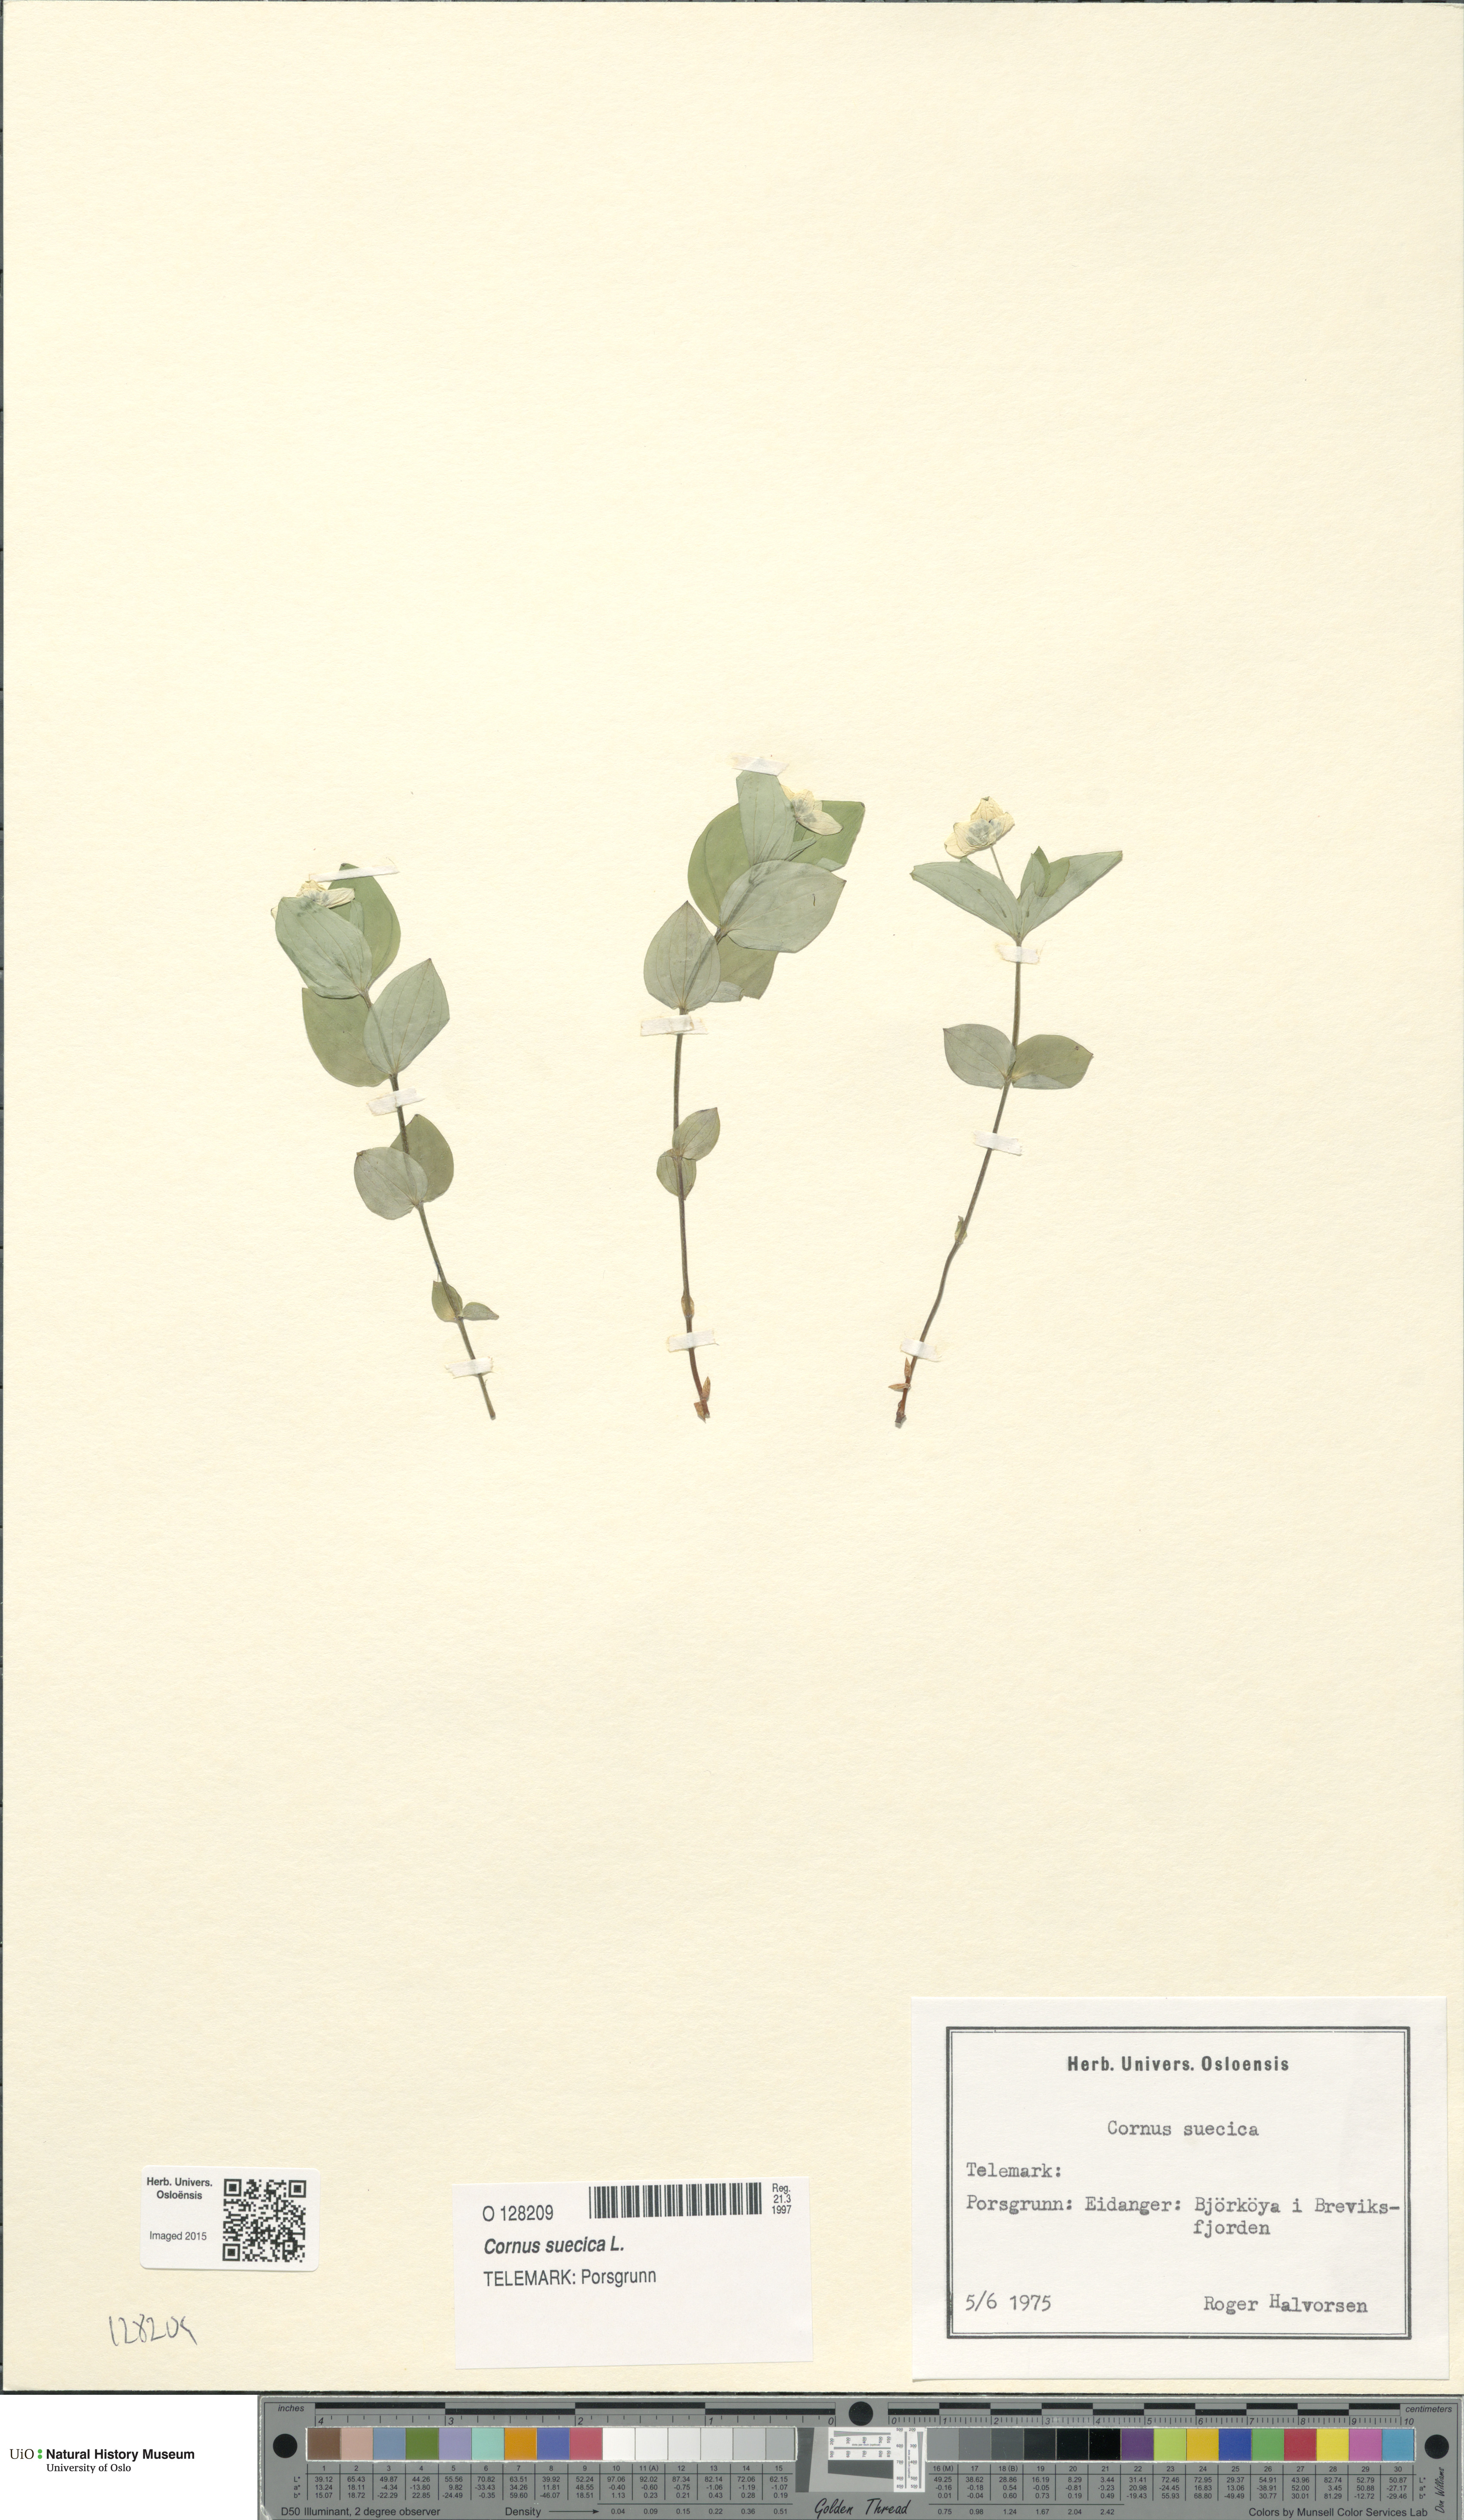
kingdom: Plantae
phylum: Tracheophyta
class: Magnoliopsida
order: Cornales
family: Cornaceae
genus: Cornus
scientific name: Cornus suecica
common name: Dwarf cornel
